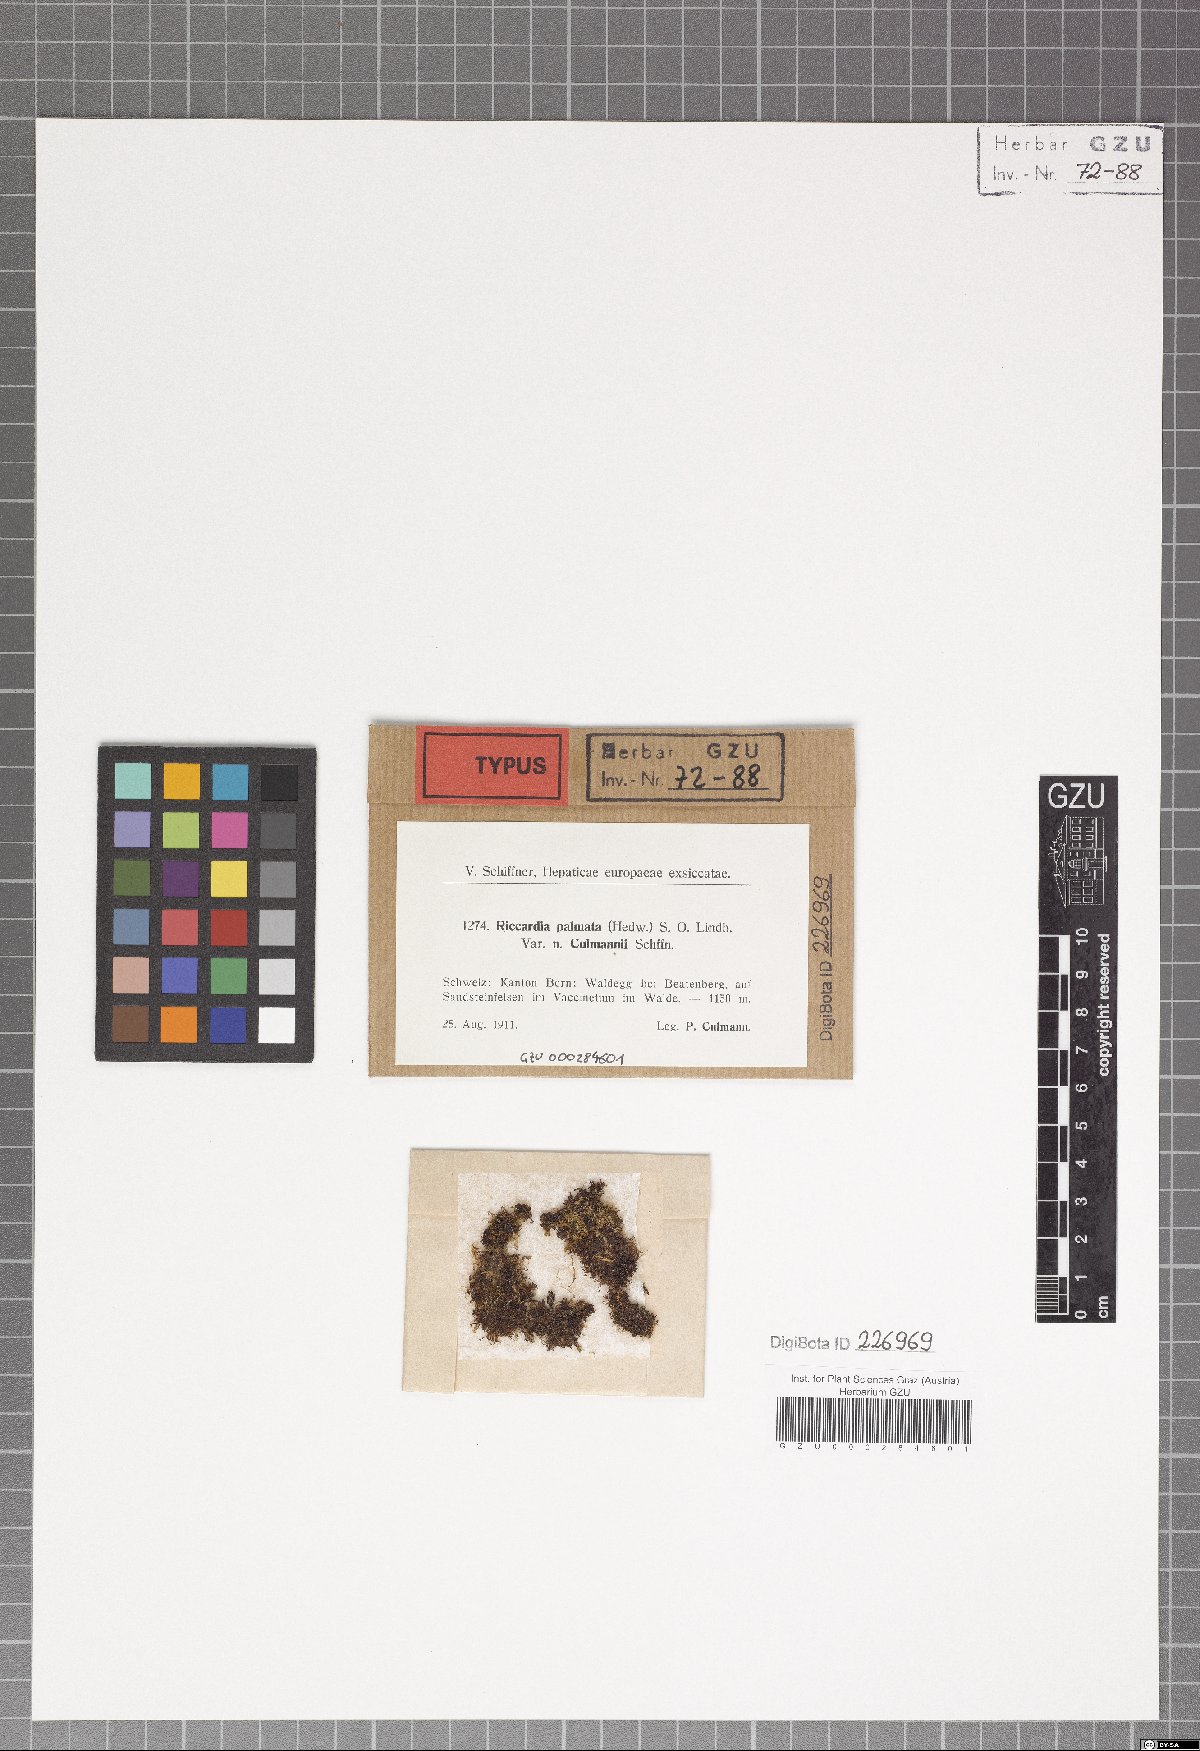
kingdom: Plantae
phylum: Marchantiophyta
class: Jungermanniopsida
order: Metzgeriales
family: Aneuraceae
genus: Riccardia
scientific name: Riccardia palmata
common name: Palmate germanderwort
